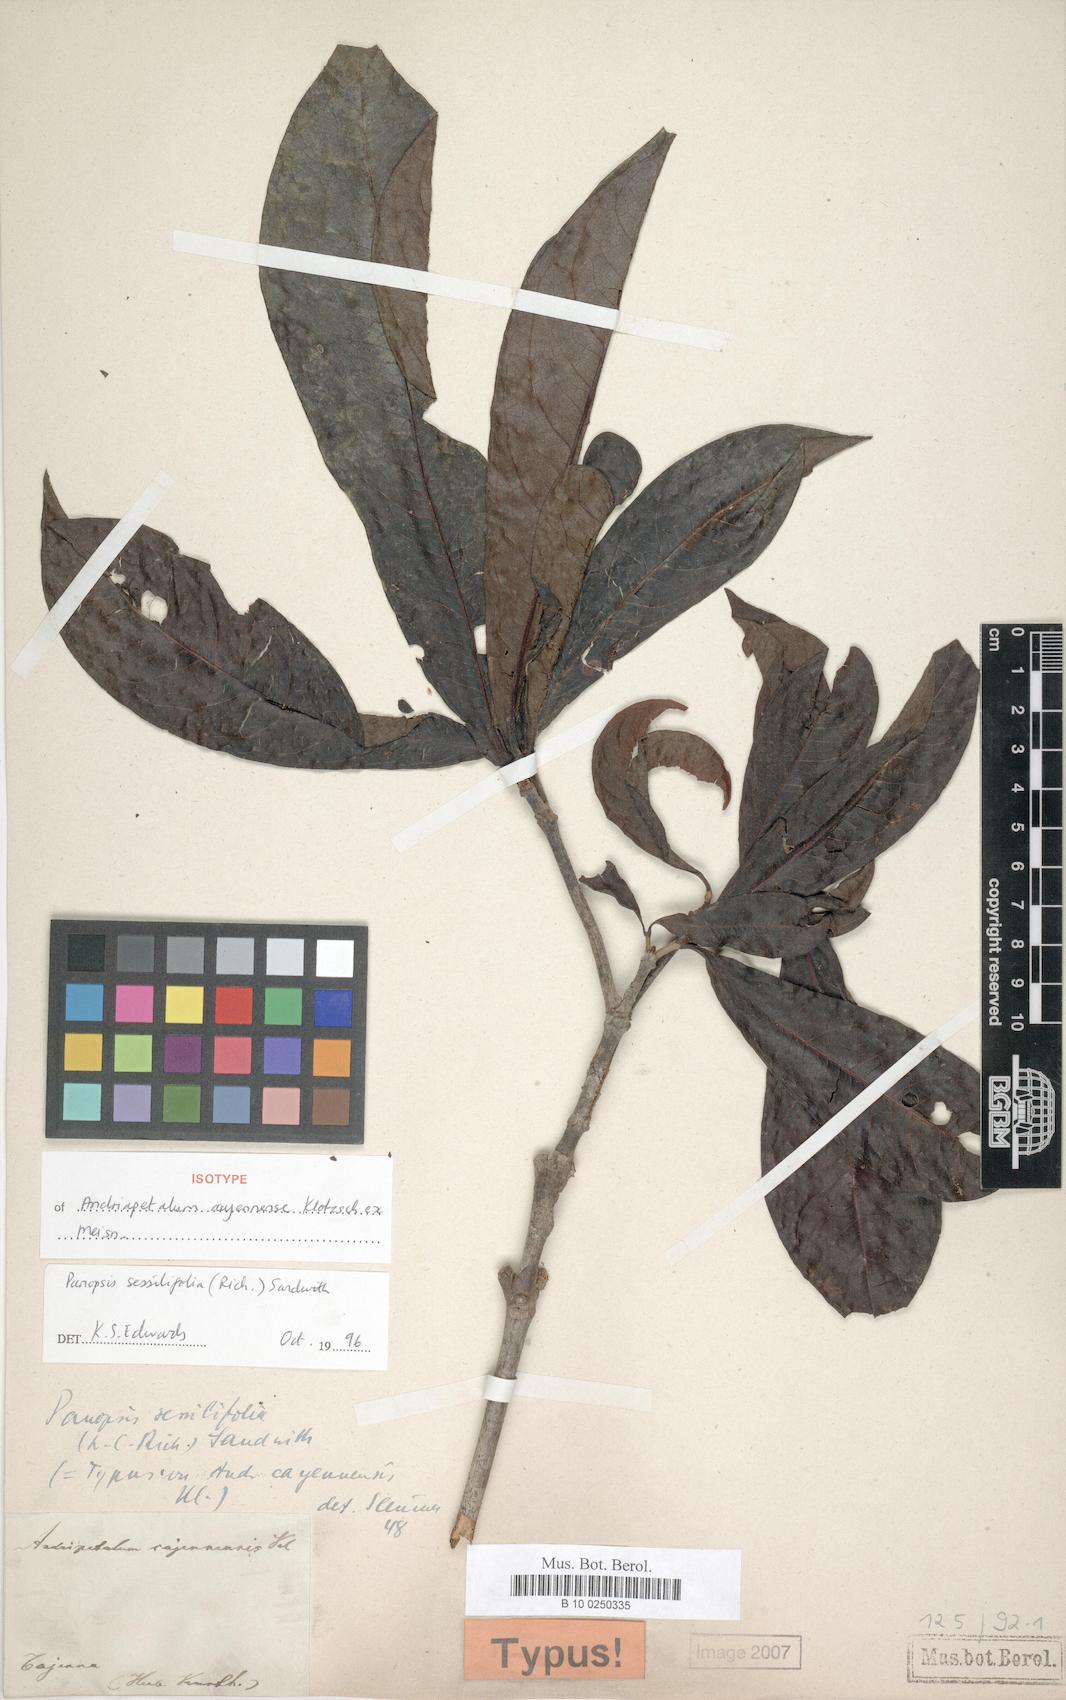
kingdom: Plantae
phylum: Tracheophyta
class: Magnoliopsida
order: Proteales
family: Proteaceae
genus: Panopsis
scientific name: Panopsis sessilifolia
